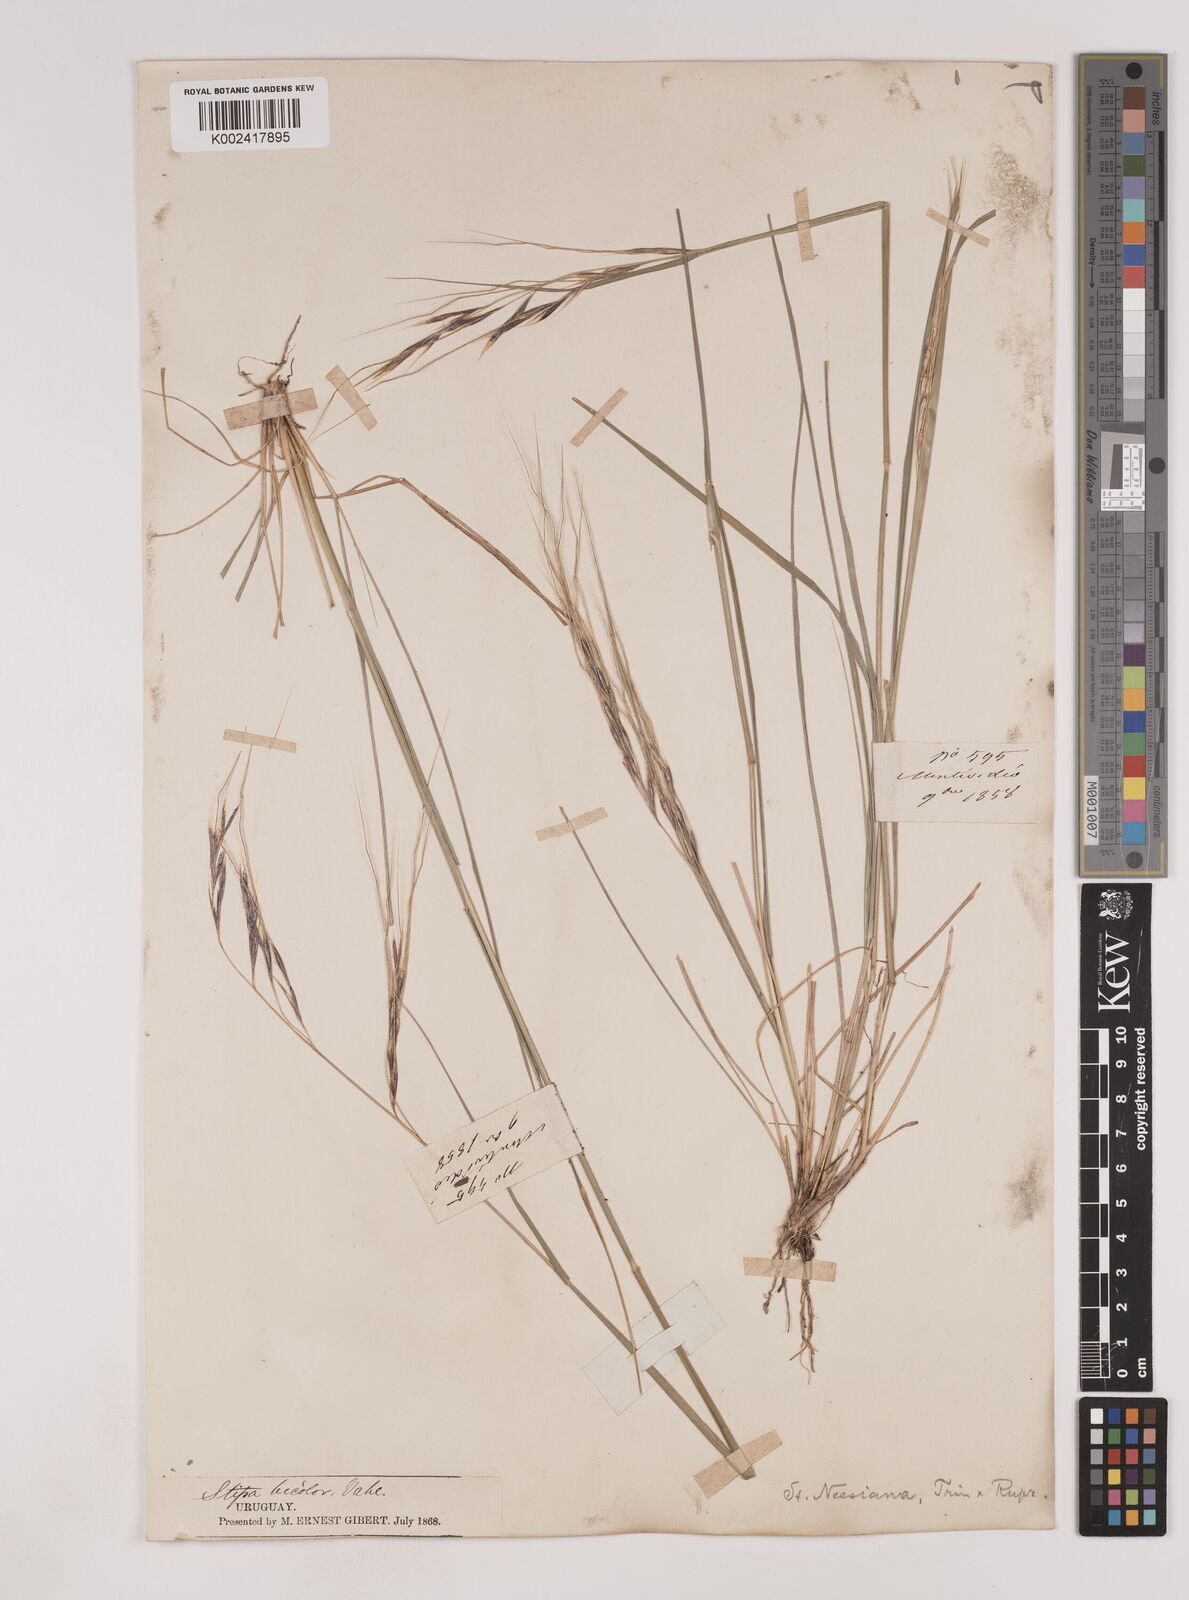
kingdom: Plantae
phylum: Tracheophyta
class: Liliopsida
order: Poales
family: Poaceae
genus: Nassella
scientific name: Nassella neesiana
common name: American needle-grass
